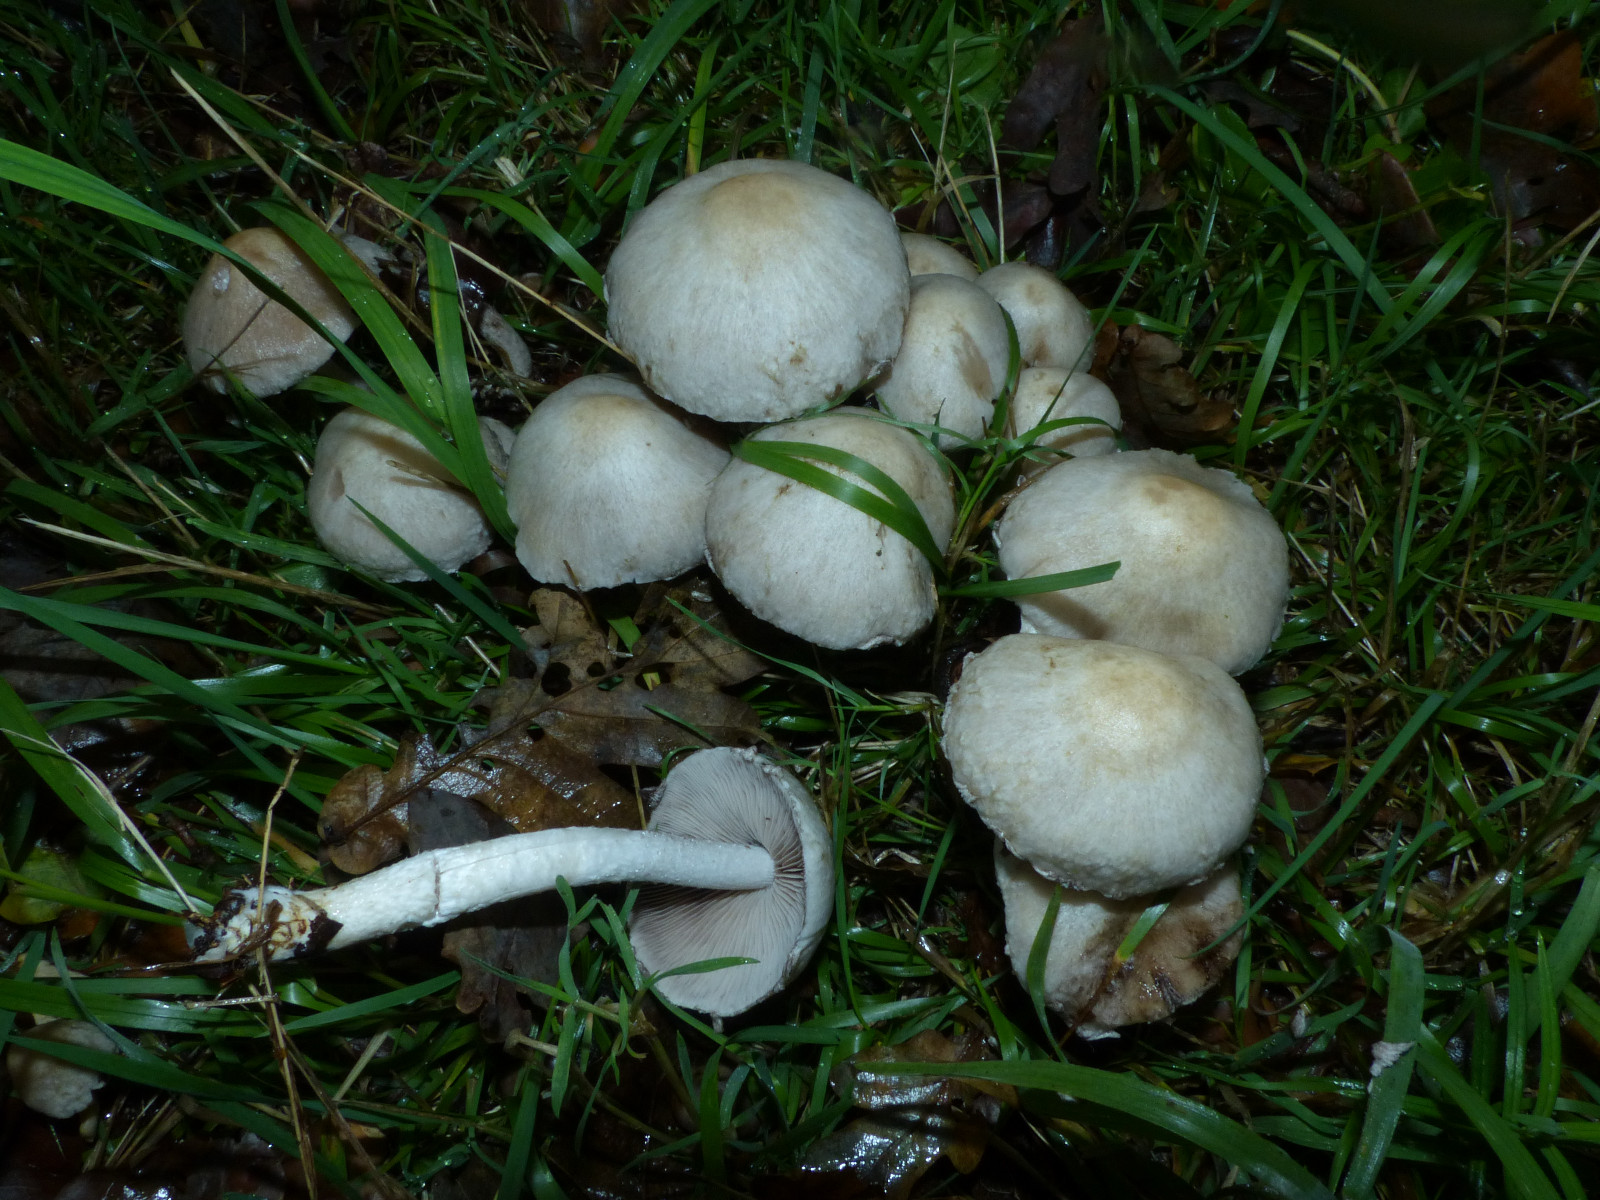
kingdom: Fungi
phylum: Basidiomycota
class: Agaricomycetes
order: Agaricales
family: Psathyrellaceae
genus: Psathyrella
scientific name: Psathyrella cotonea
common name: skællet mørkhat
